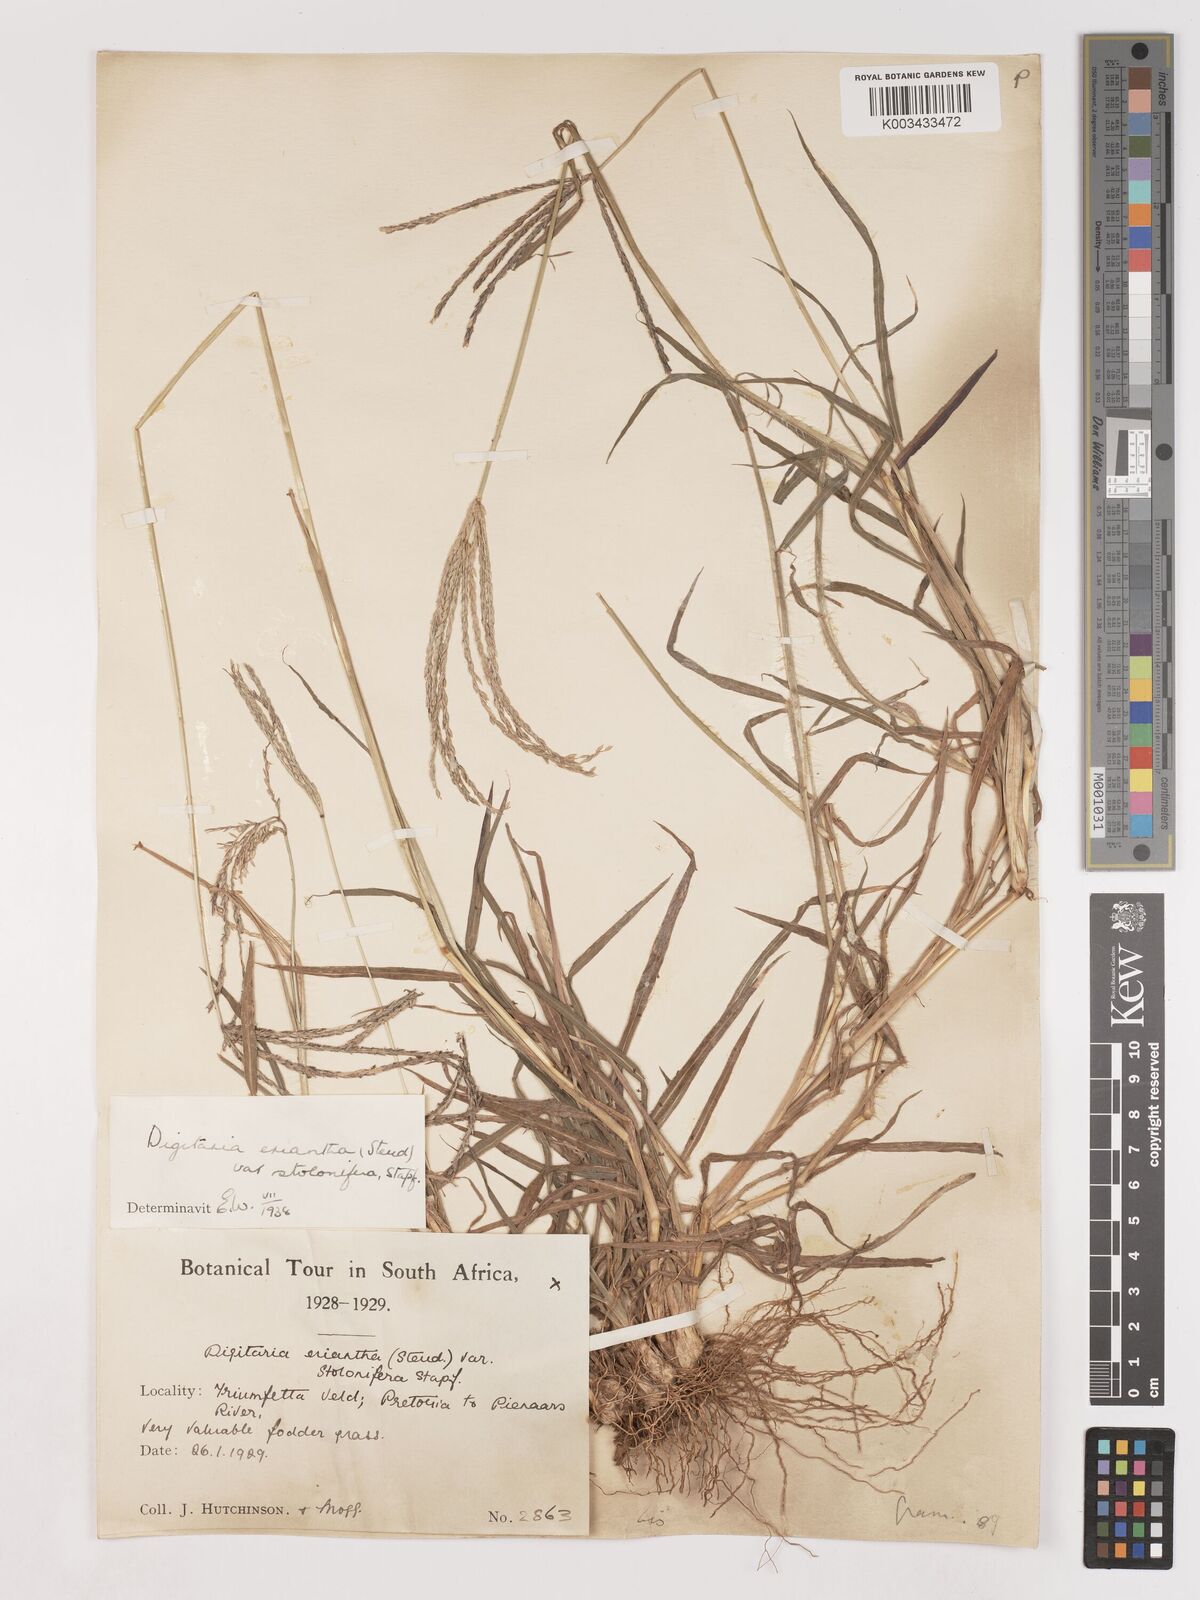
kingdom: Plantae
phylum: Tracheophyta
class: Liliopsida
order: Poales
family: Poaceae
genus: Digitaria
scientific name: Digitaria eriantha
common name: Digitgrass
